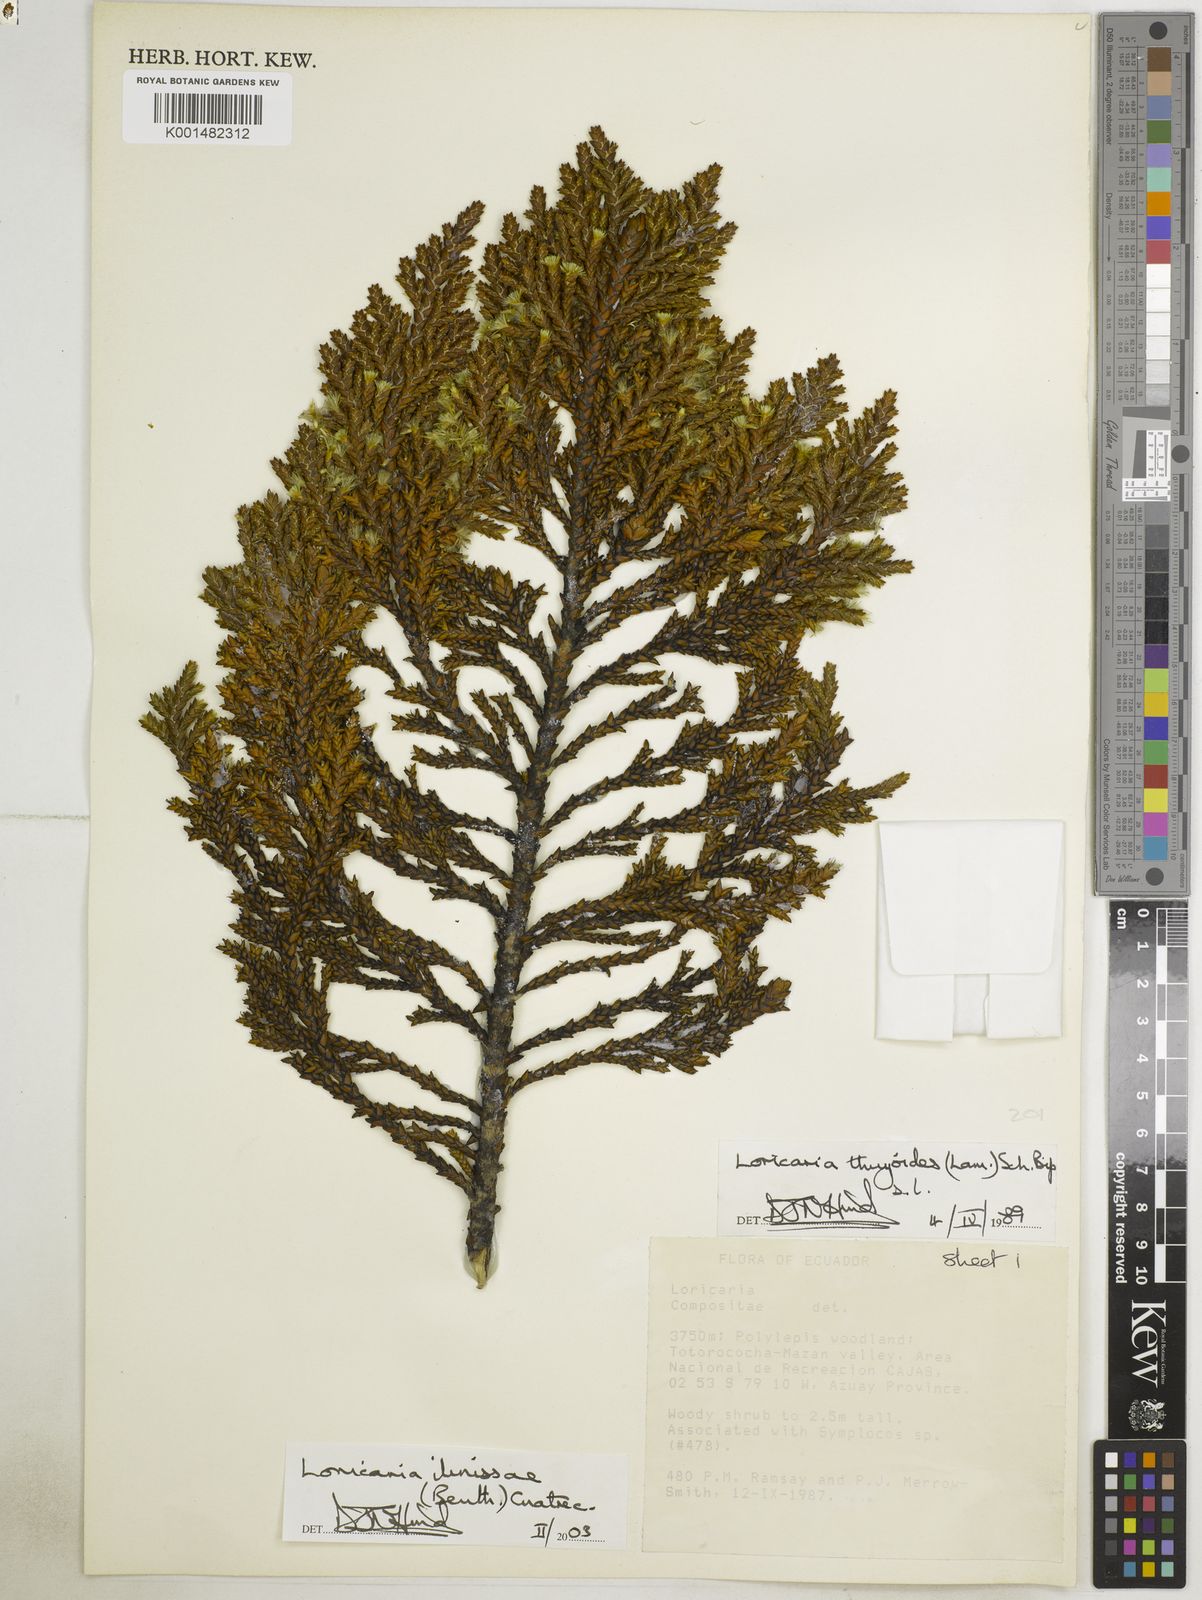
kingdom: Plantae
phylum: Tracheophyta
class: Magnoliopsida
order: Asterales
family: Asteraceae
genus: Andicolea
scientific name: Andicolea ilinissae
